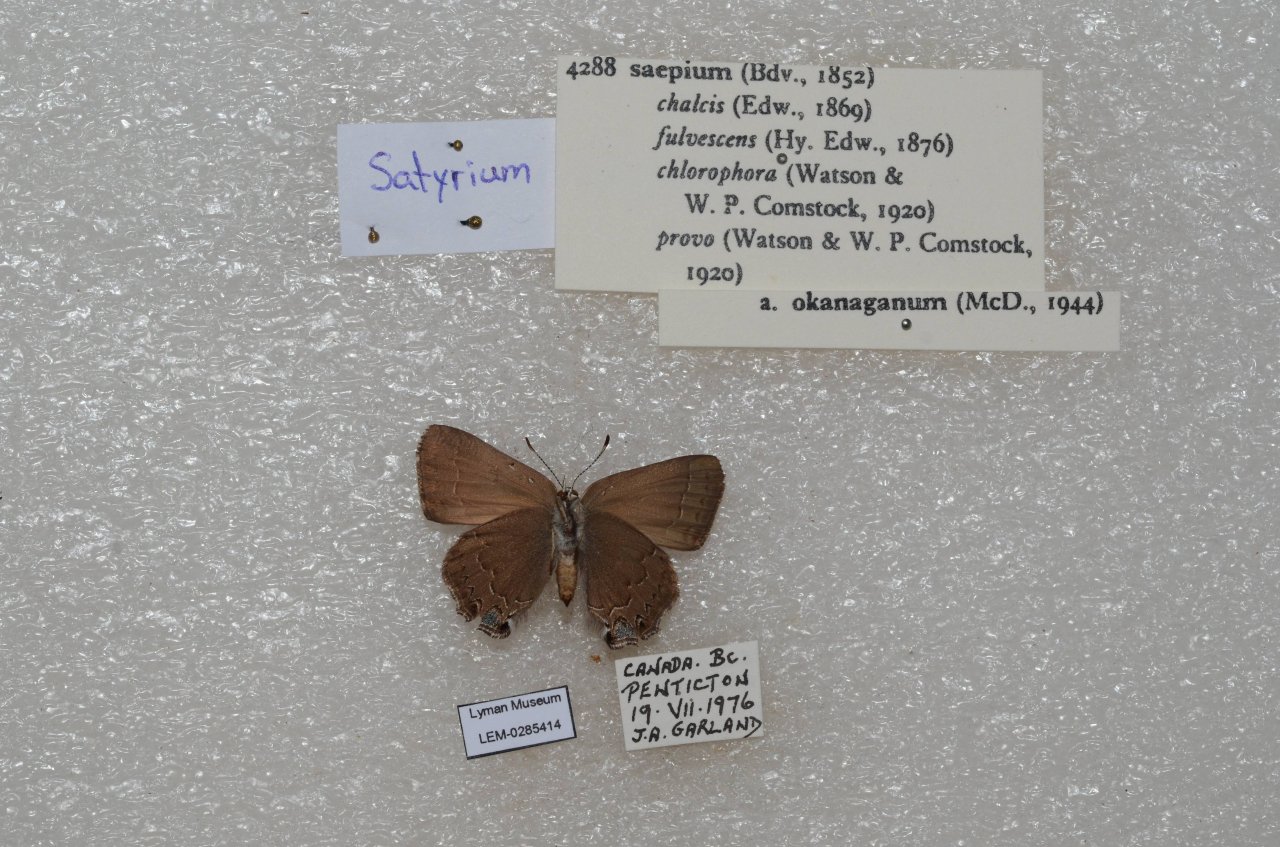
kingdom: Animalia
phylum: Arthropoda
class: Insecta
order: Lepidoptera
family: Lycaenidae
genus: Strymon
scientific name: Strymon saepium
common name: Hedgerow Hairstreak
